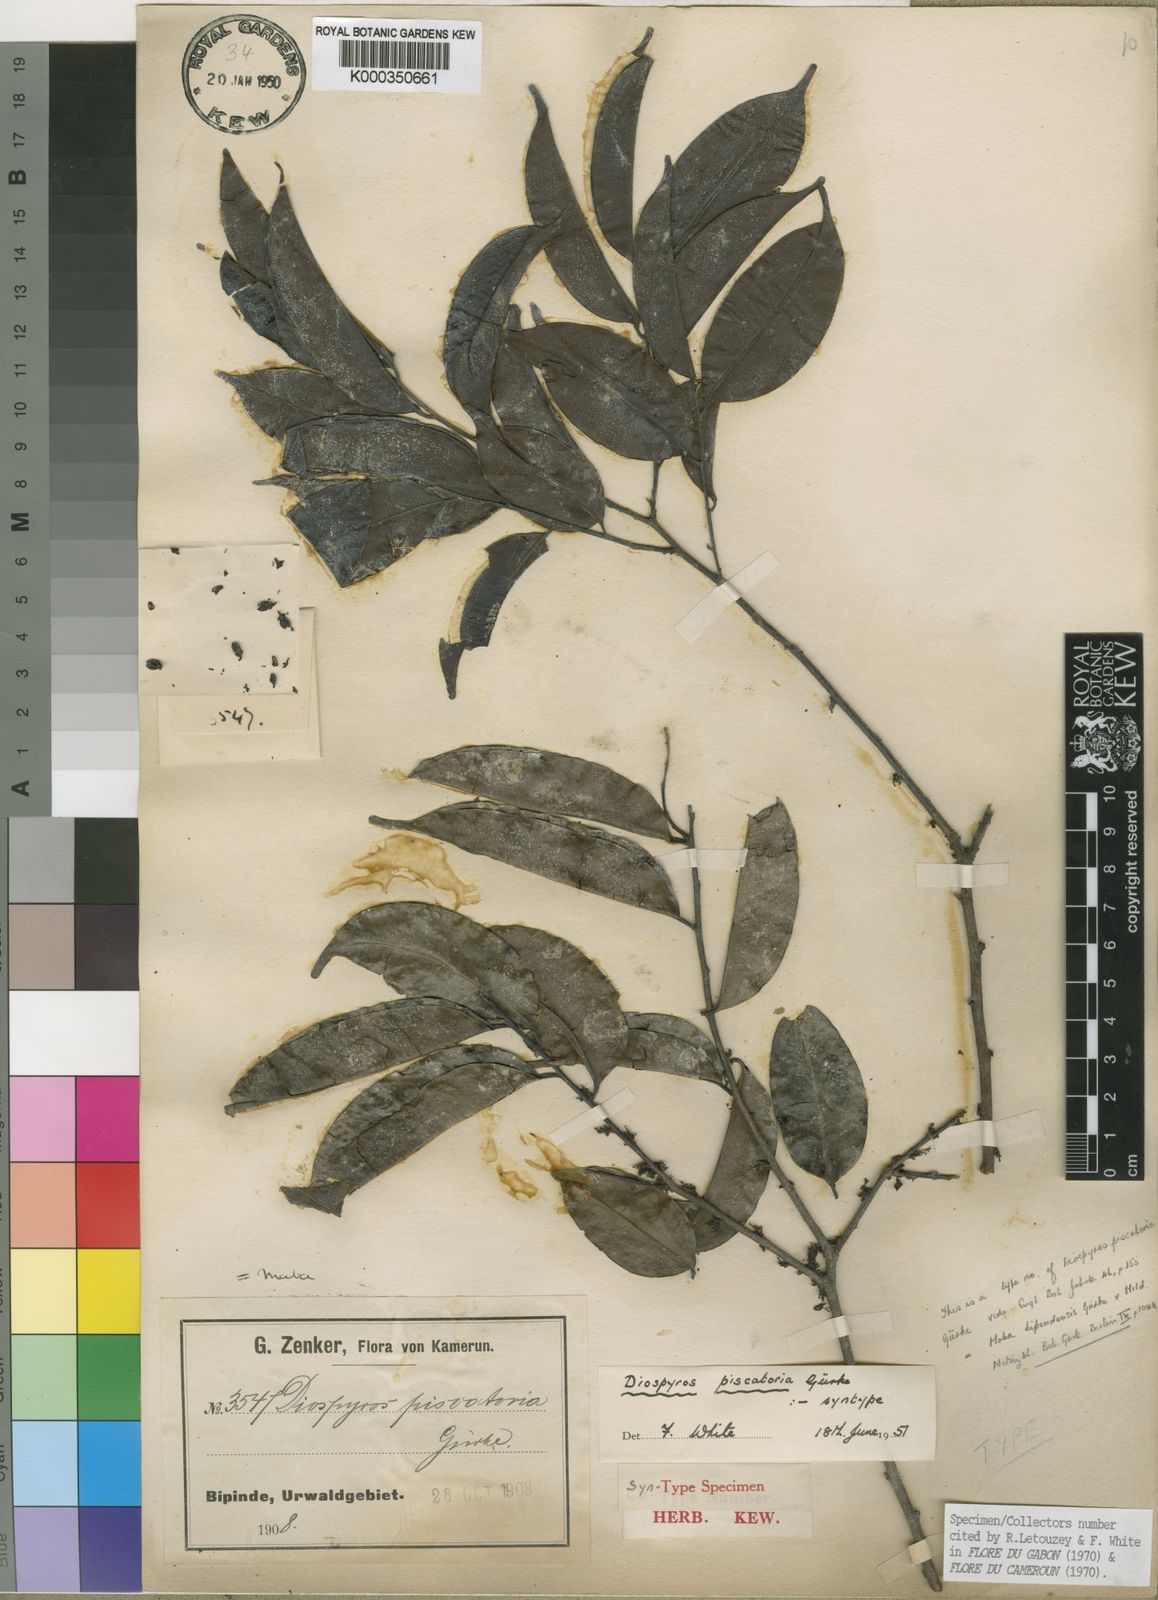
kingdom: Plantae
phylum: Tracheophyta
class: Magnoliopsida
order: Ericales
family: Ebenaceae
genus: Diospyros
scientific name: Diospyros
